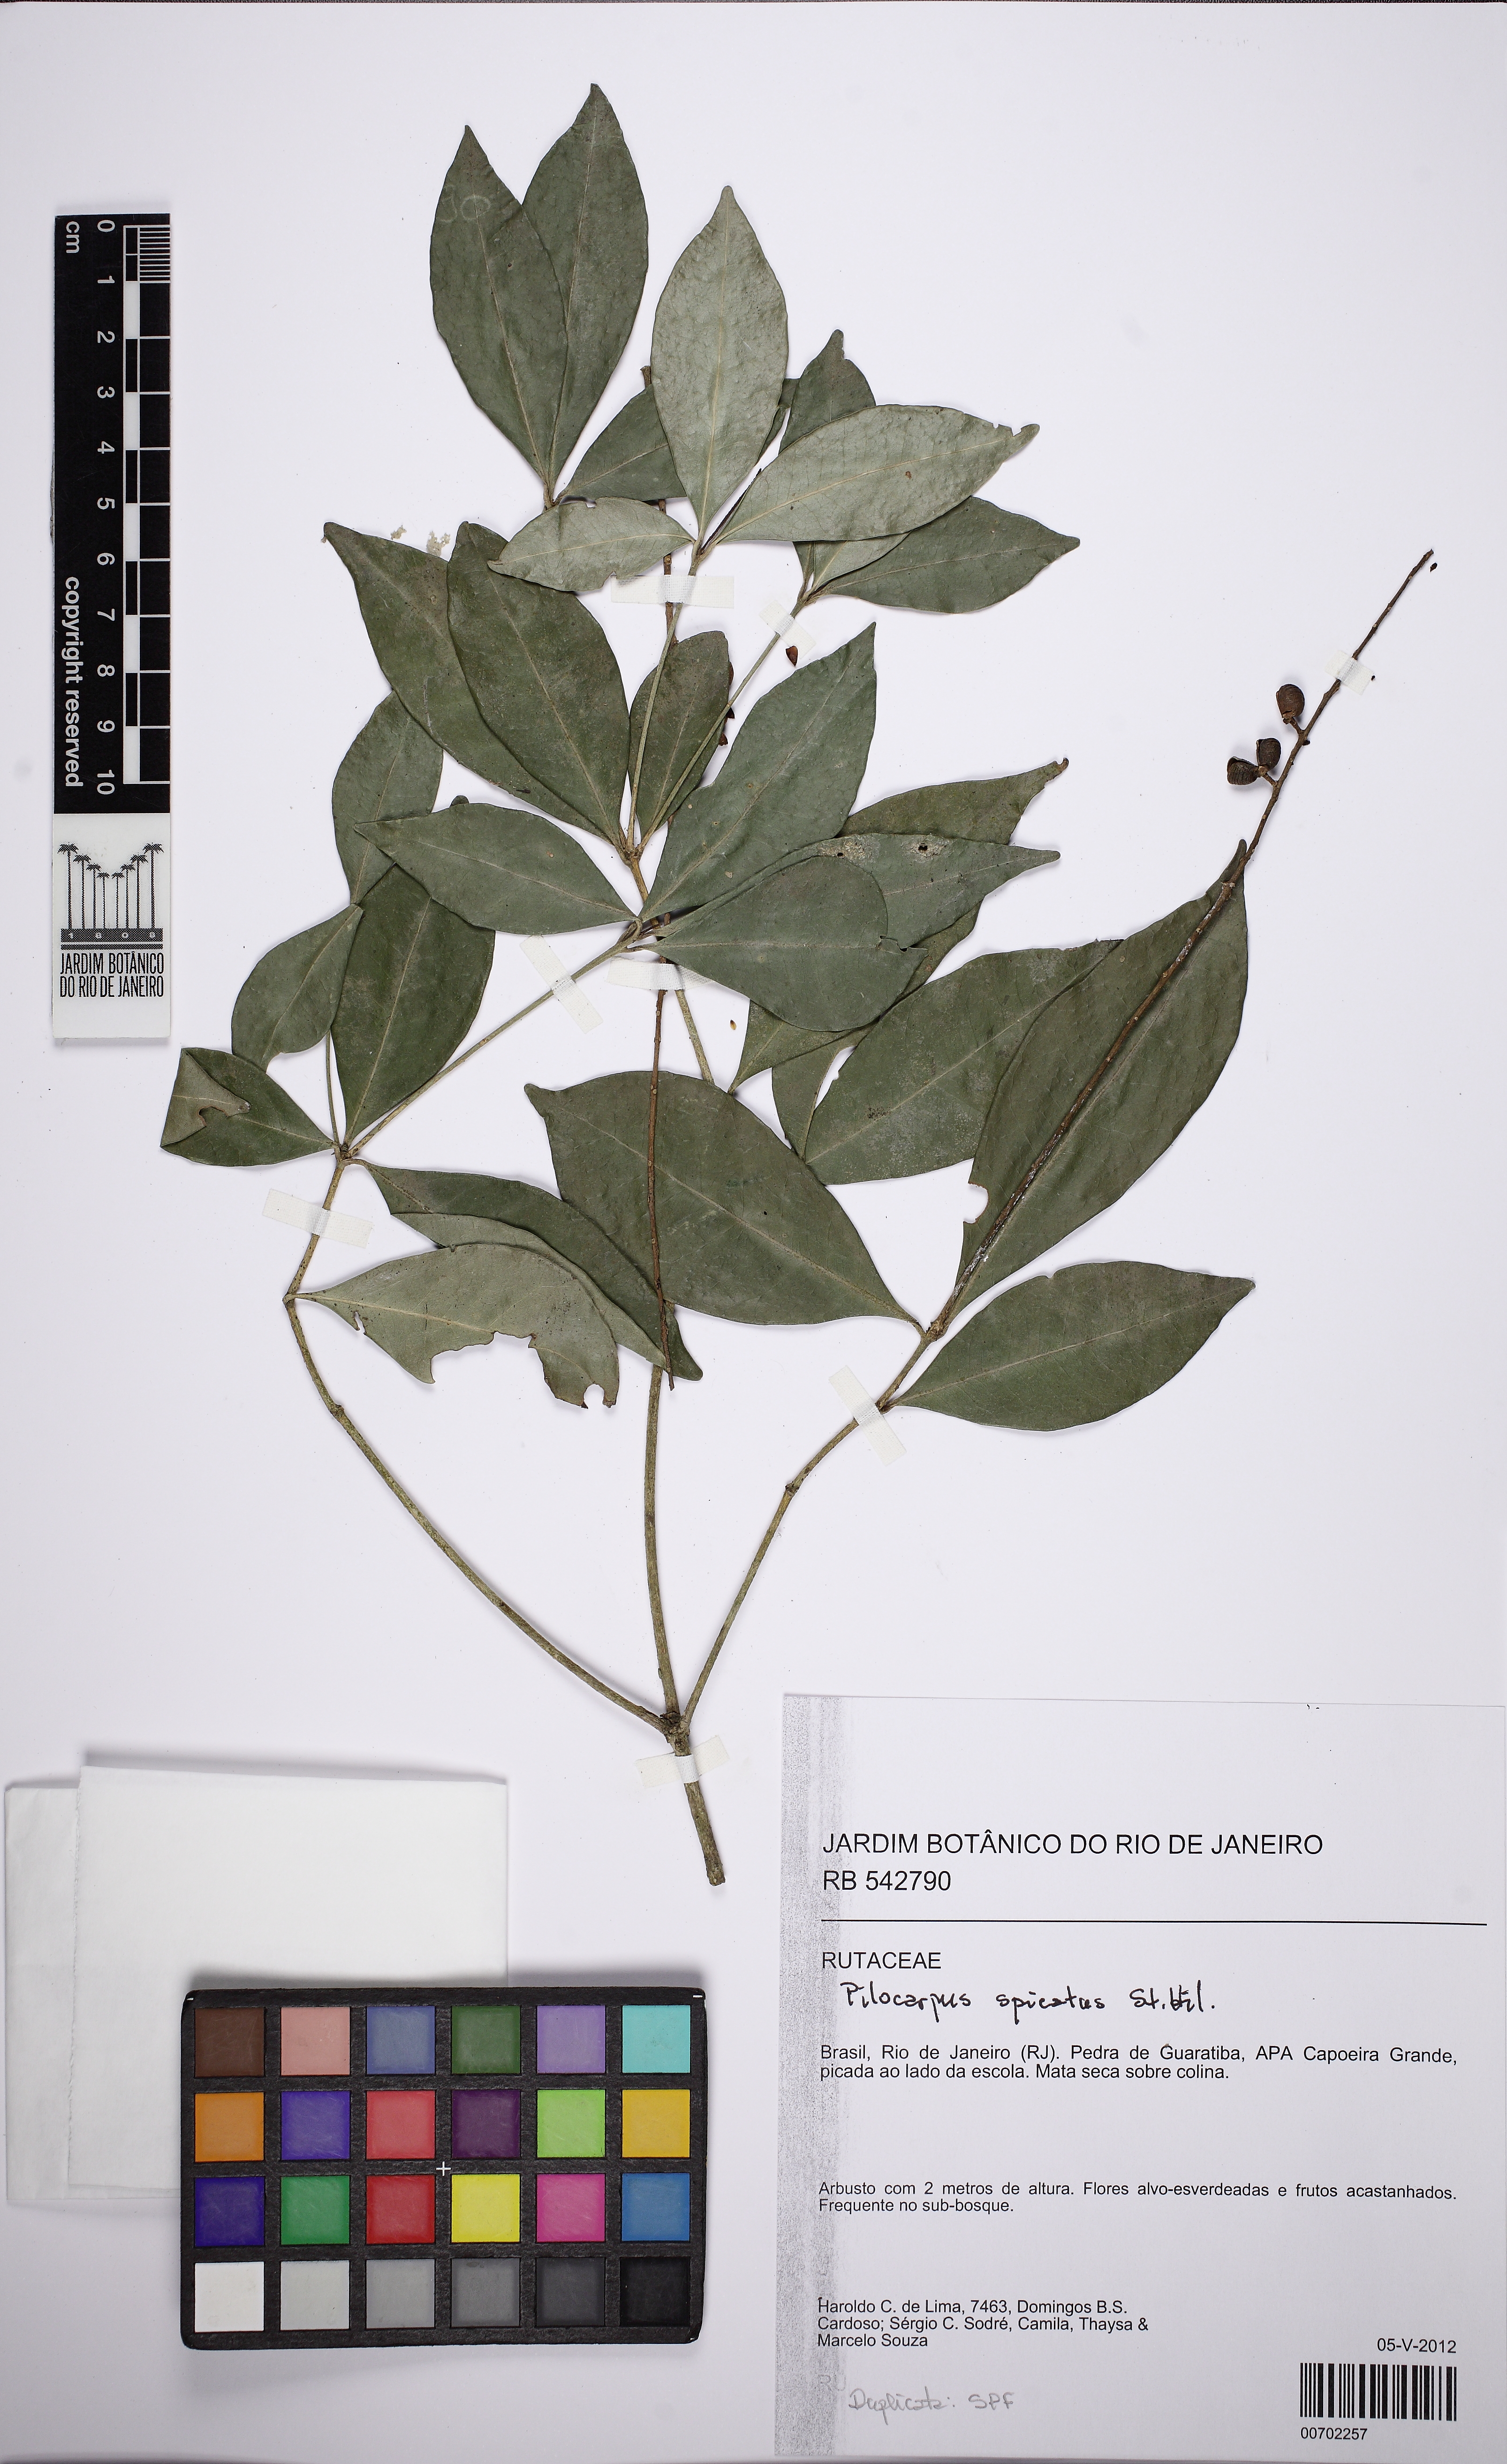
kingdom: Plantae
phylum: Tracheophyta
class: Magnoliopsida
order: Sapindales
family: Rutaceae
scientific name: Rutaceae
